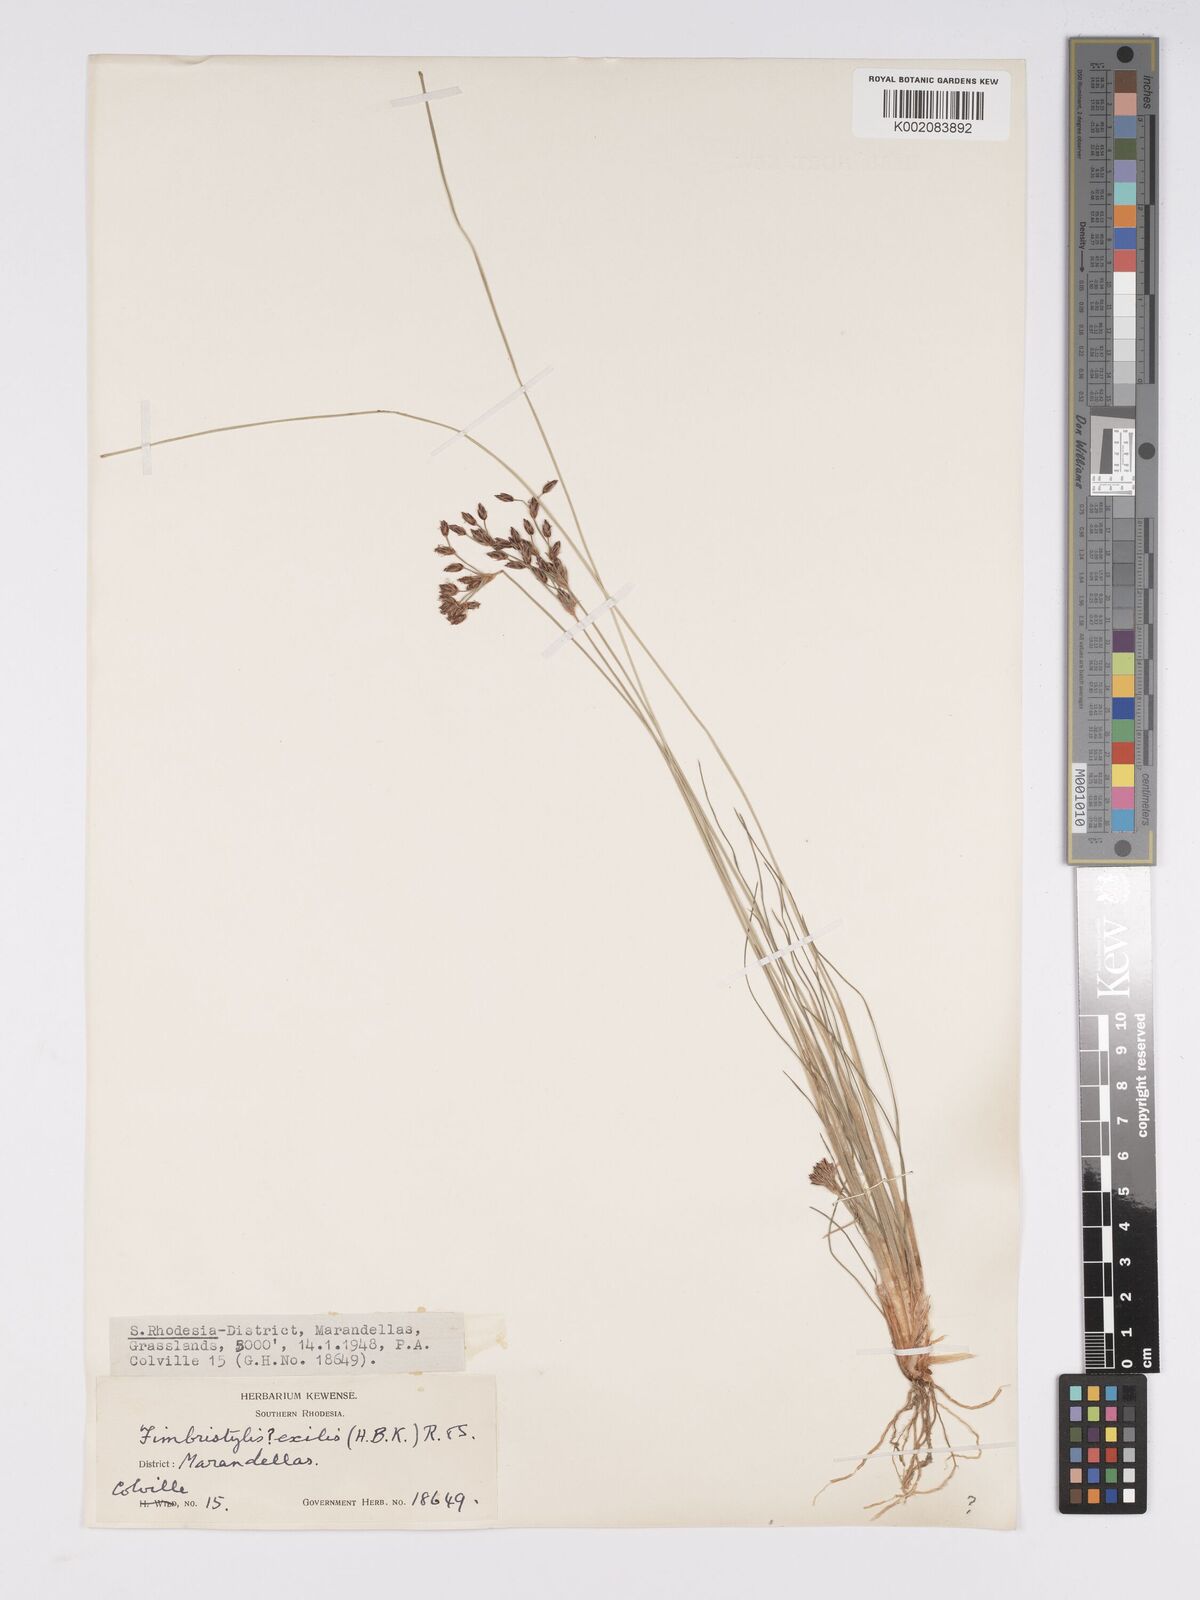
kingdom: Plantae
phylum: Tracheophyta
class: Liliopsida
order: Poales
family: Cyperaceae
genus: Bulbostylis
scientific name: Bulbostylis hispidula
